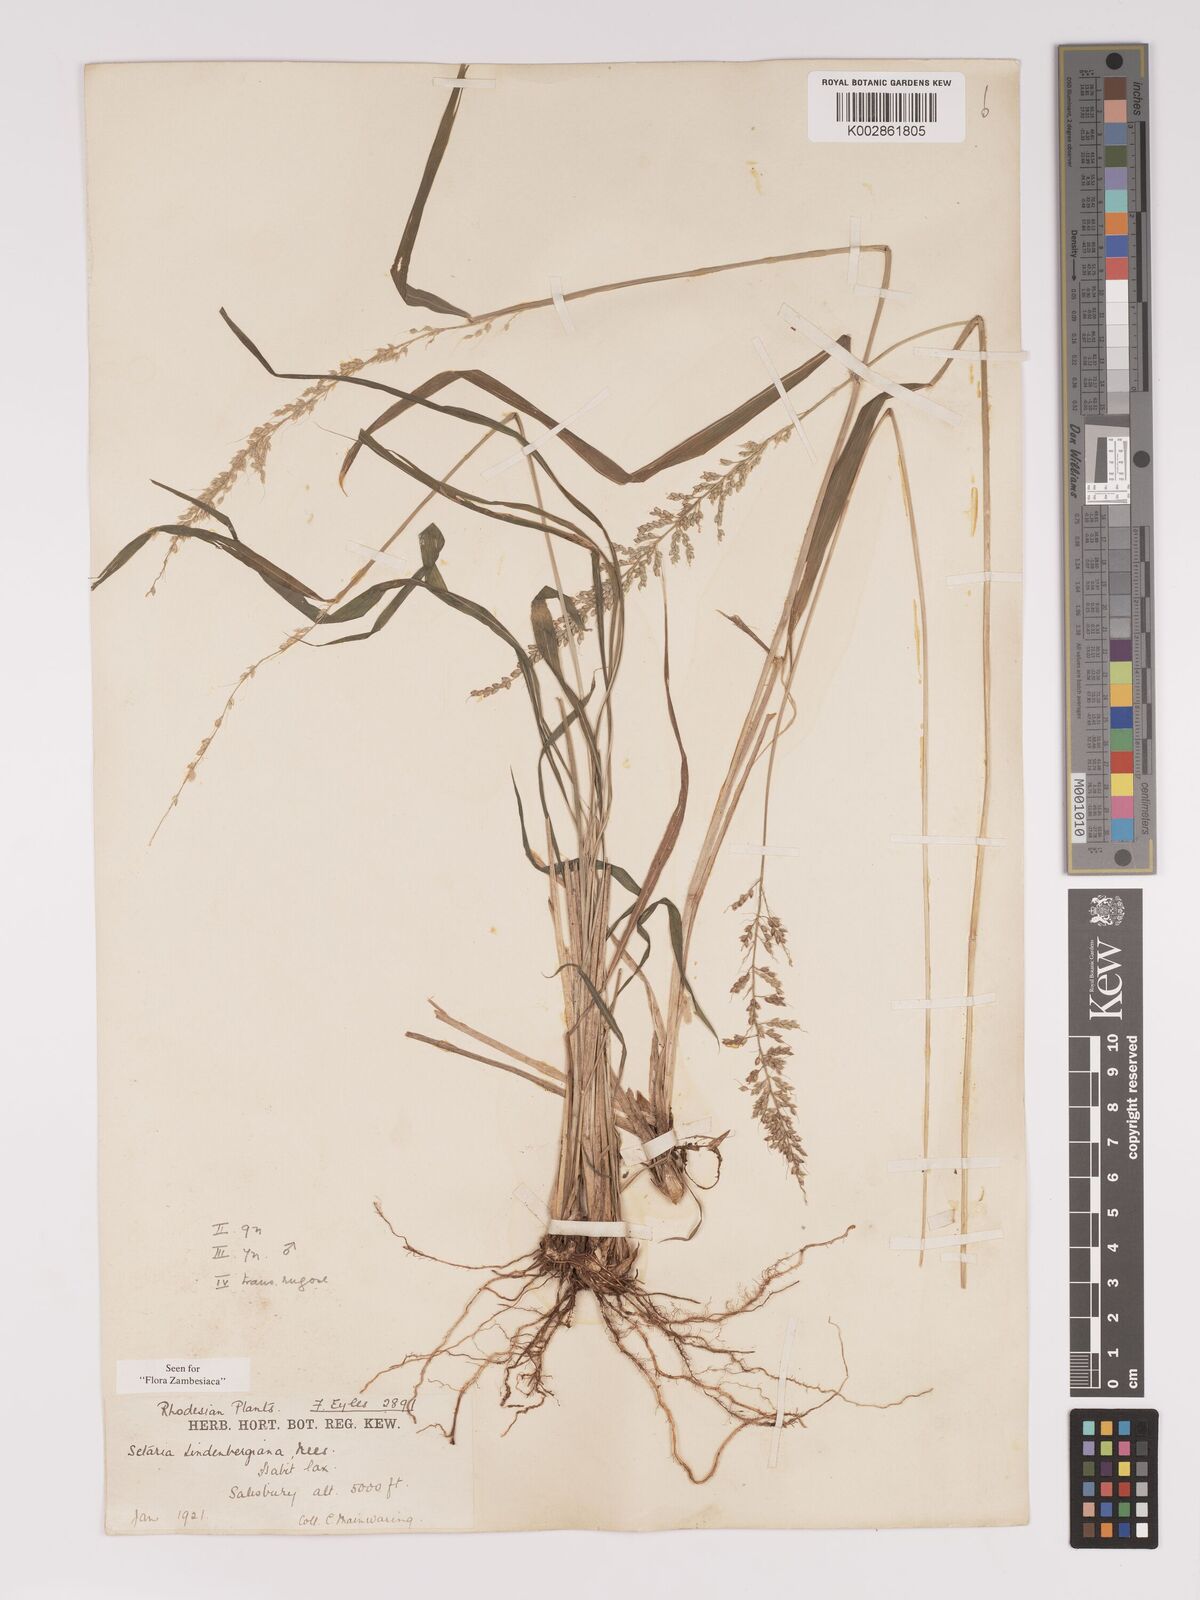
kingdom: Plantae
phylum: Tracheophyta
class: Liliopsida
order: Poales
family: Poaceae
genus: Setaria
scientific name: Setaria lindenbergiana
